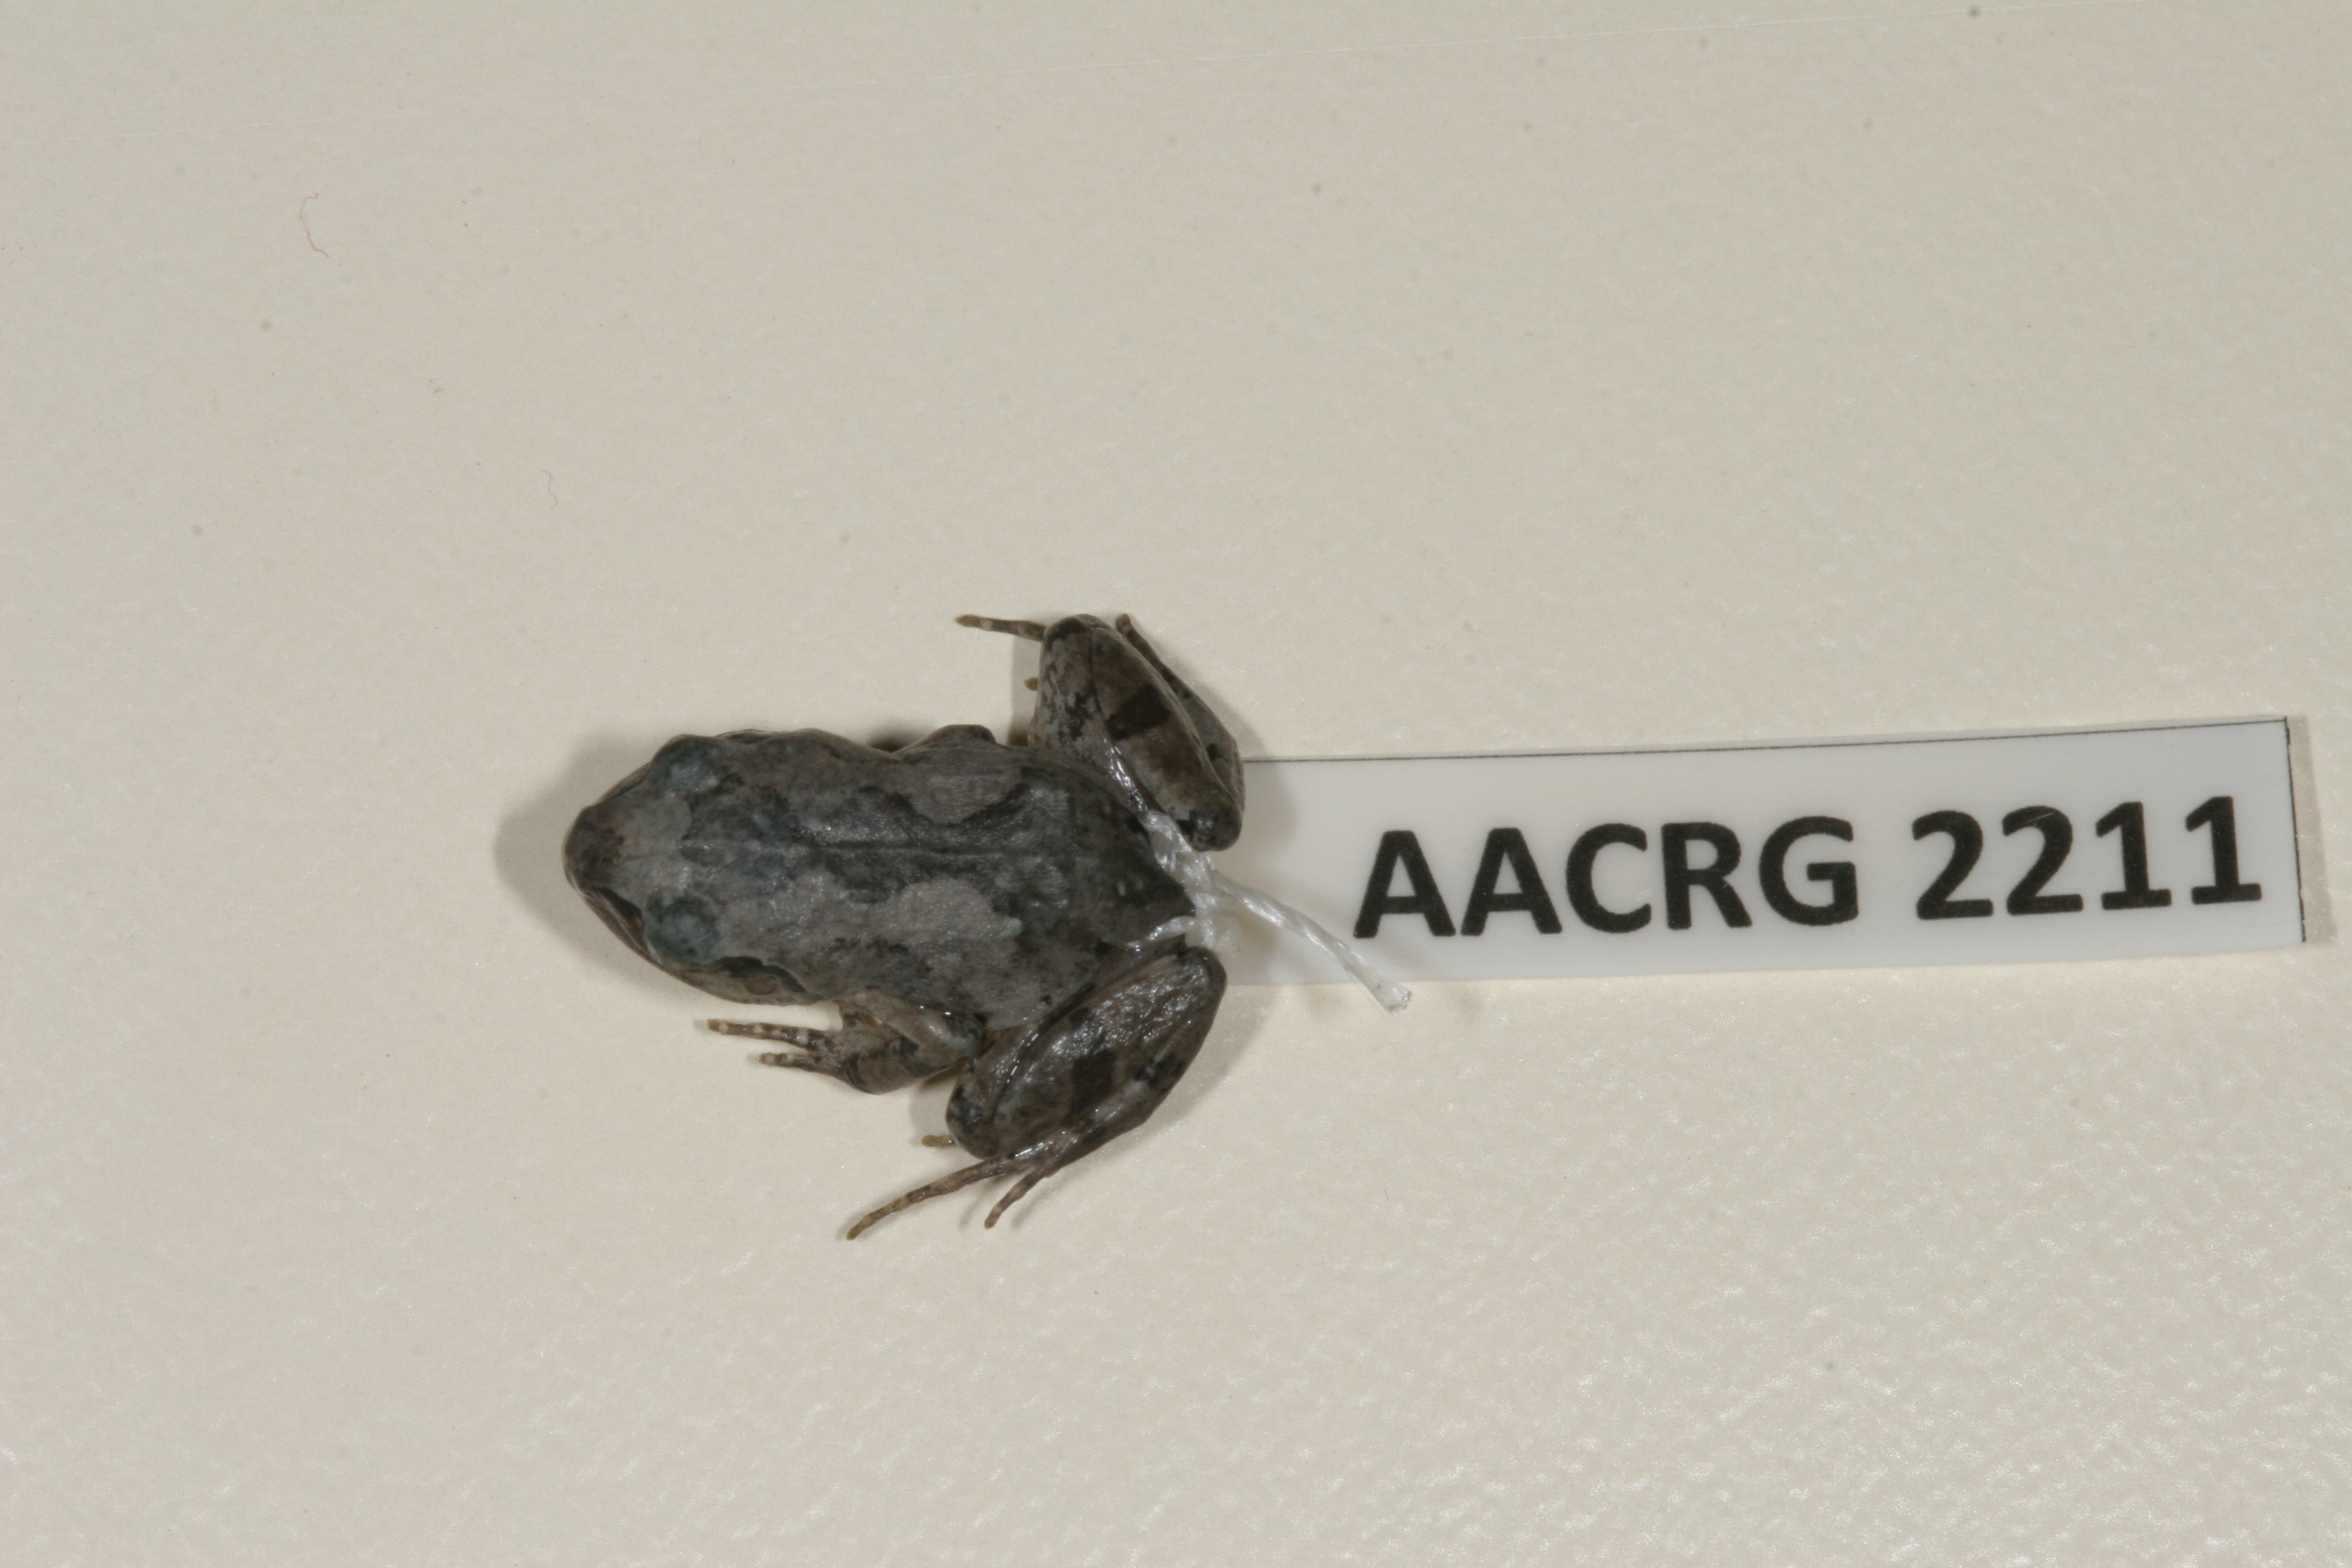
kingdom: Animalia
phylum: Chordata
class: Amphibia
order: Anura
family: Arthroleptidae
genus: Arthroleptis
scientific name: Arthroleptis wahlbergii
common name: Bush squeaker
